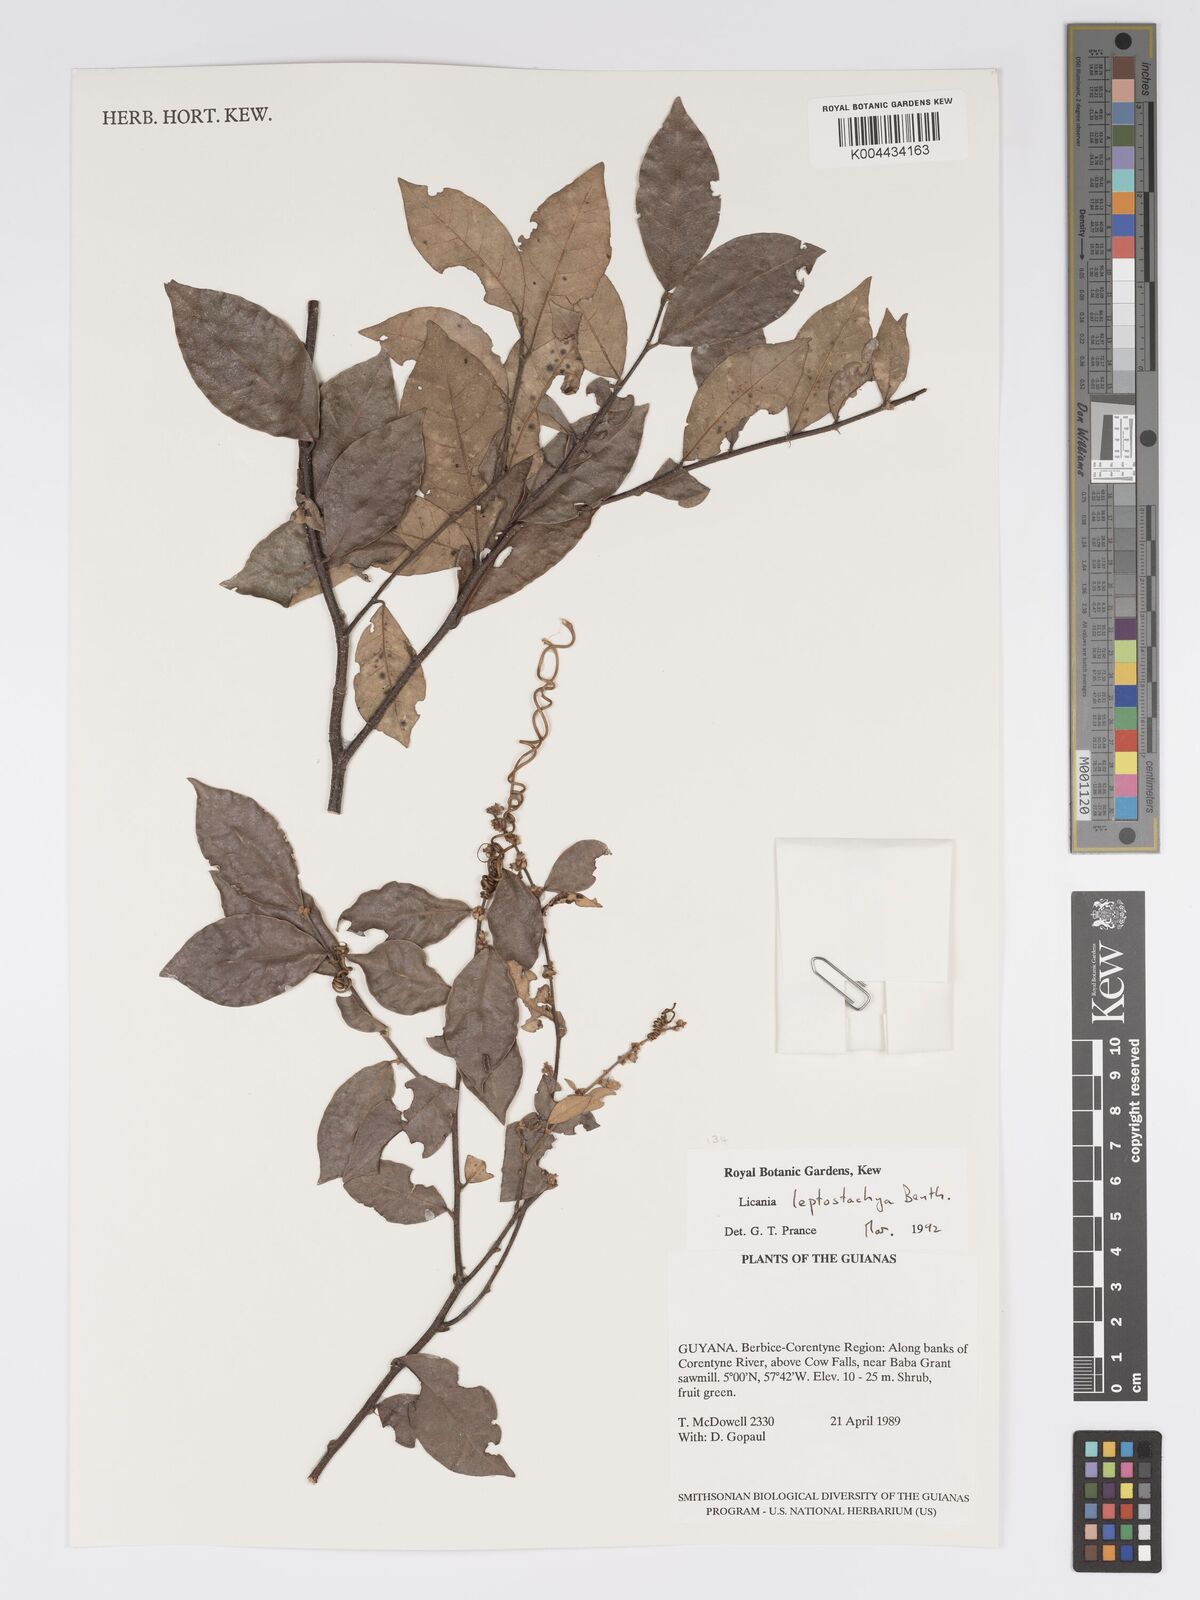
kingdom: Plantae
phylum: Tracheophyta
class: Magnoliopsida
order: Malpighiales
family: Chrysobalanaceae
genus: Licania
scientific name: Licania leptostachya
